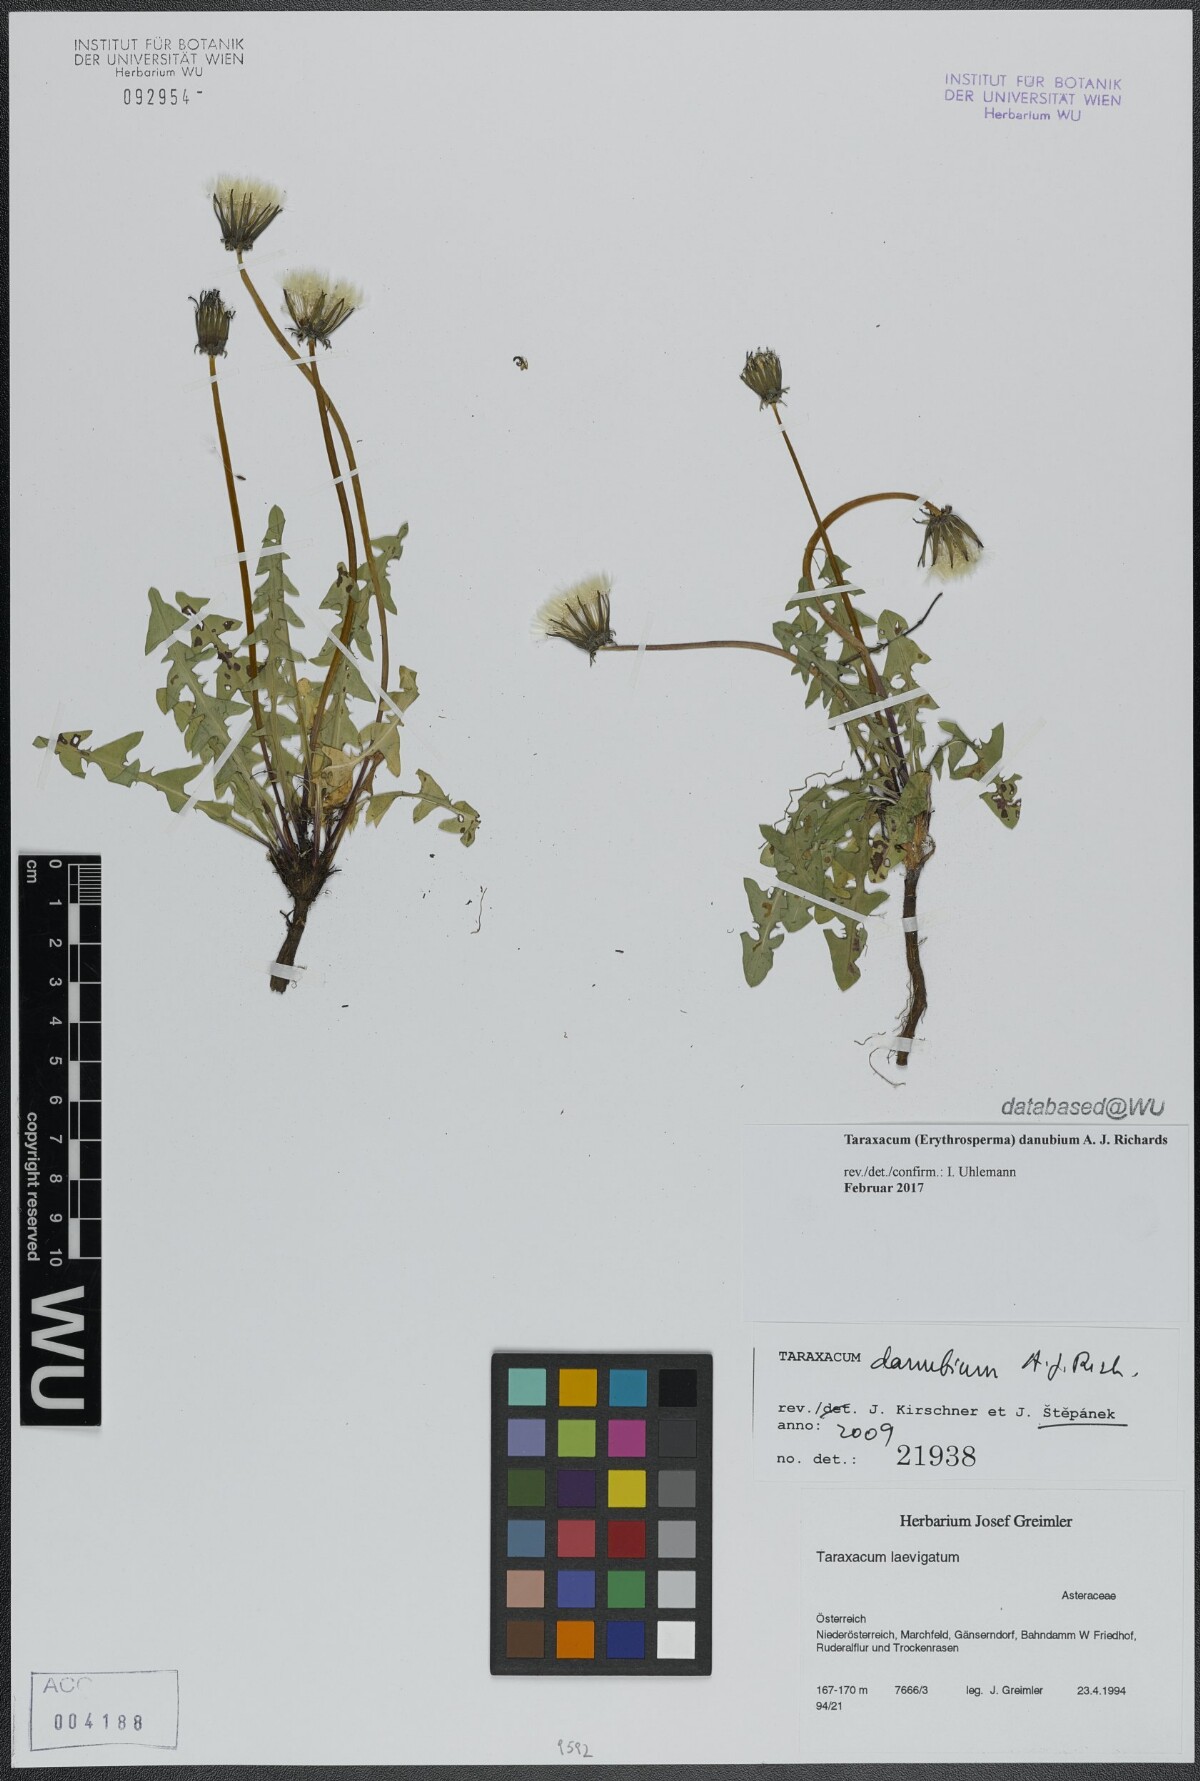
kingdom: Plantae
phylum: Tracheophyta
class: Magnoliopsida
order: Asterales
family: Asteraceae
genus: Taraxacum
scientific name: Taraxacum danubium
